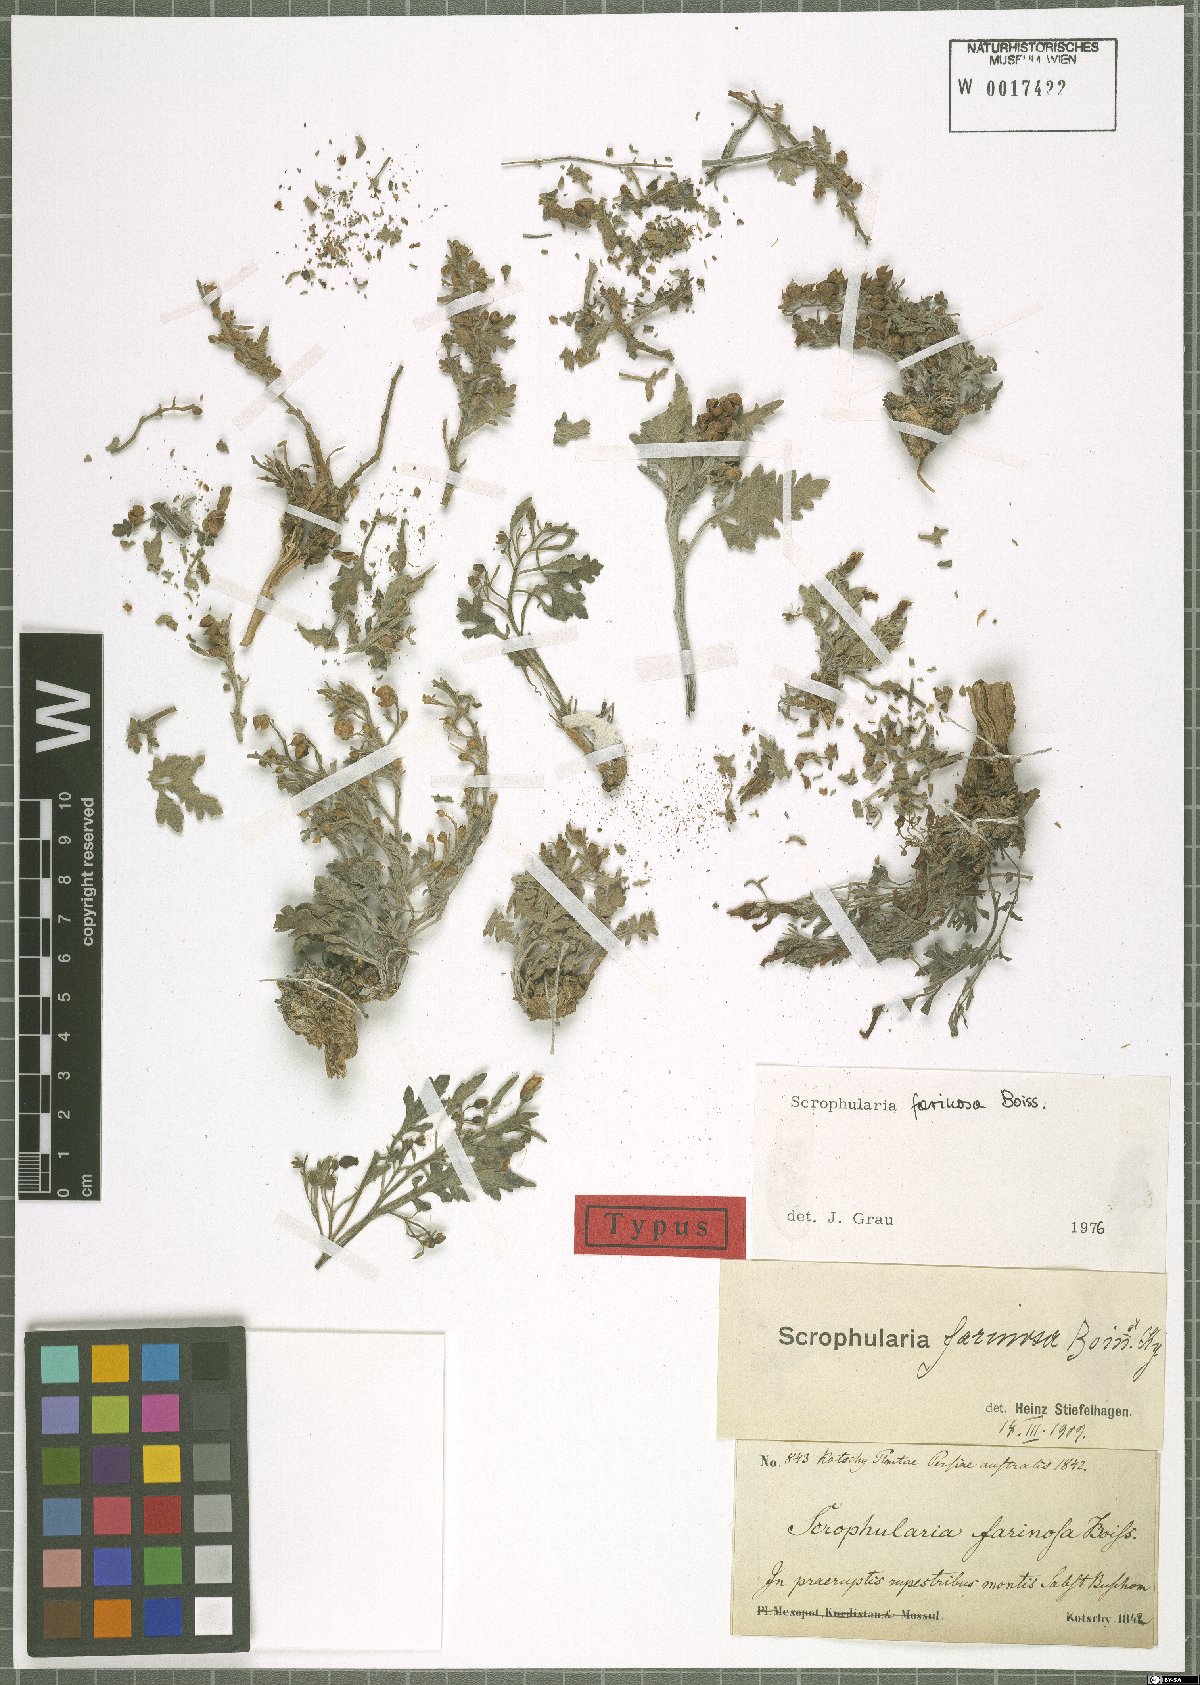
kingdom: Plantae
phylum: Tracheophyta
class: Magnoliopsida
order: Lamiales
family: Scrophulariaceae
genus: Scrophularia
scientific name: Scrophularia longiflora
